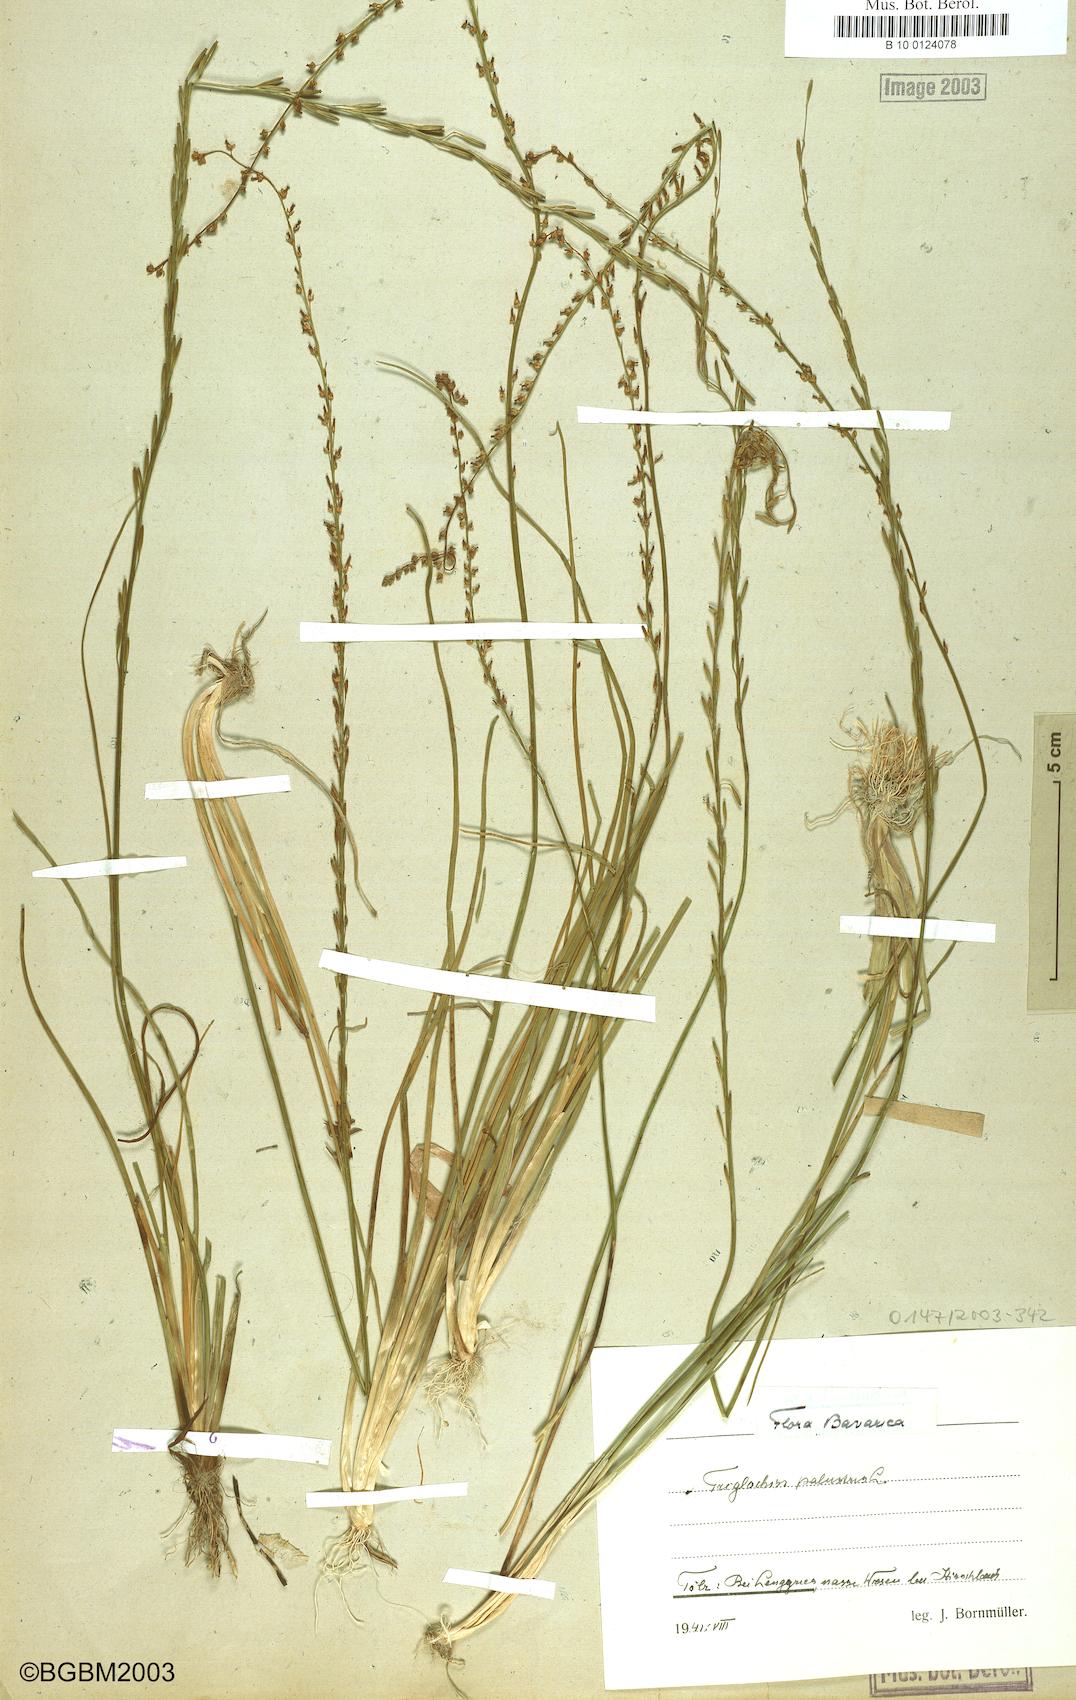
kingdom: Plantae
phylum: Tracheophyta
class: Liliopsida
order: Alismatales
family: Juncaginaceae
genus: Triglochin
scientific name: Triglochin palustris
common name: Marsh arrowgrass
